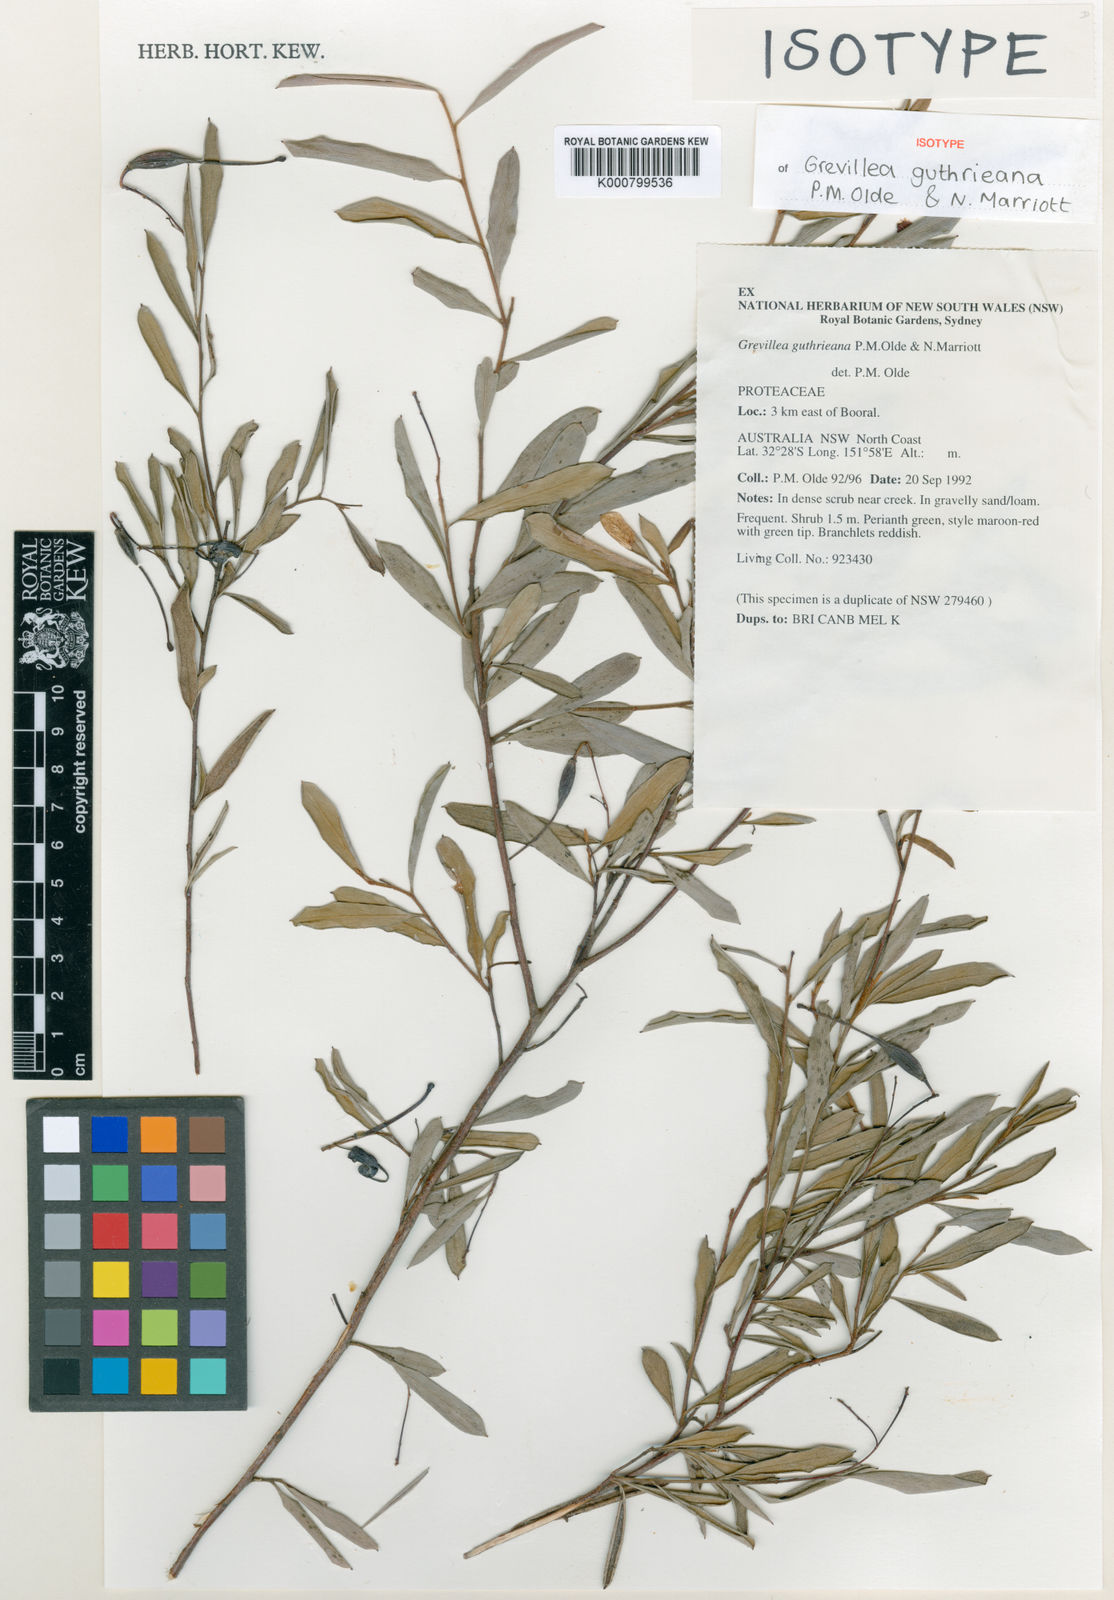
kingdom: Plantae
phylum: Tracheophyta
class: Magnoliopsida
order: Proteales
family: Proteaceae
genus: Grevillea
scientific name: Grevillea guthrieana
